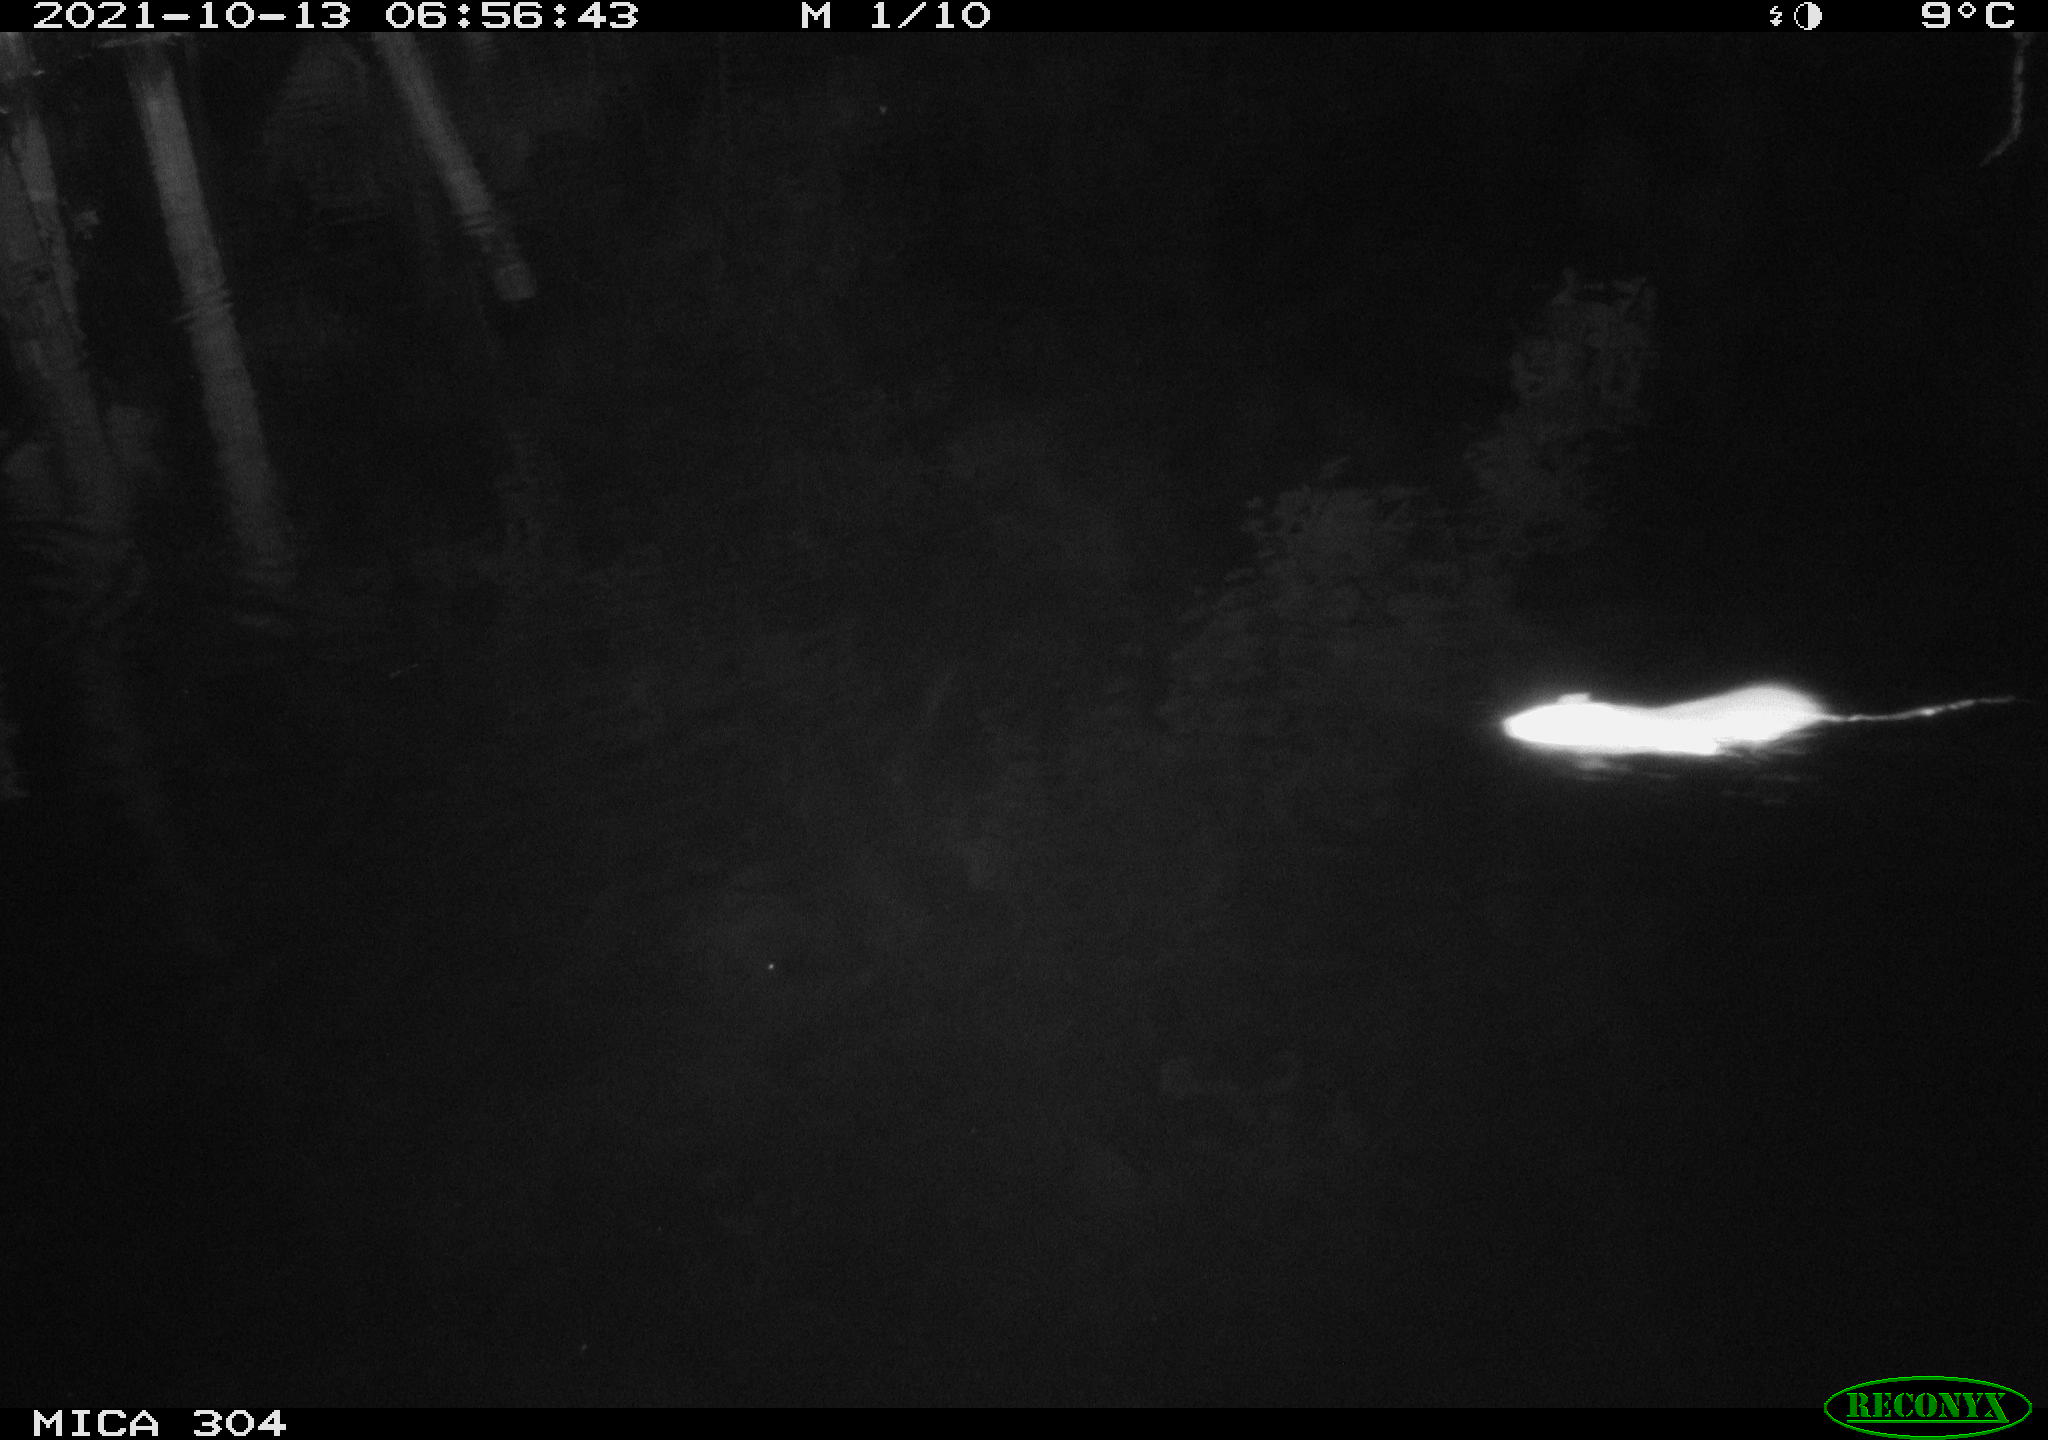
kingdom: Animalia
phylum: Chordata
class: Mammalia
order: Rodentia
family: Muridae
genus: Rattus
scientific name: Rattus norvegicus
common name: Brown rat
